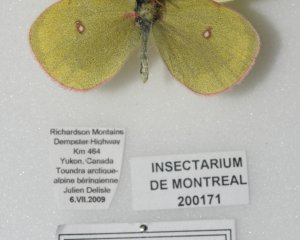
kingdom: Animalia
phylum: Arthropoda
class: Insecta
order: Lepidoptera
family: Pieridae
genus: Colias
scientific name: Colias pelidne
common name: Pelidne Sulphur
